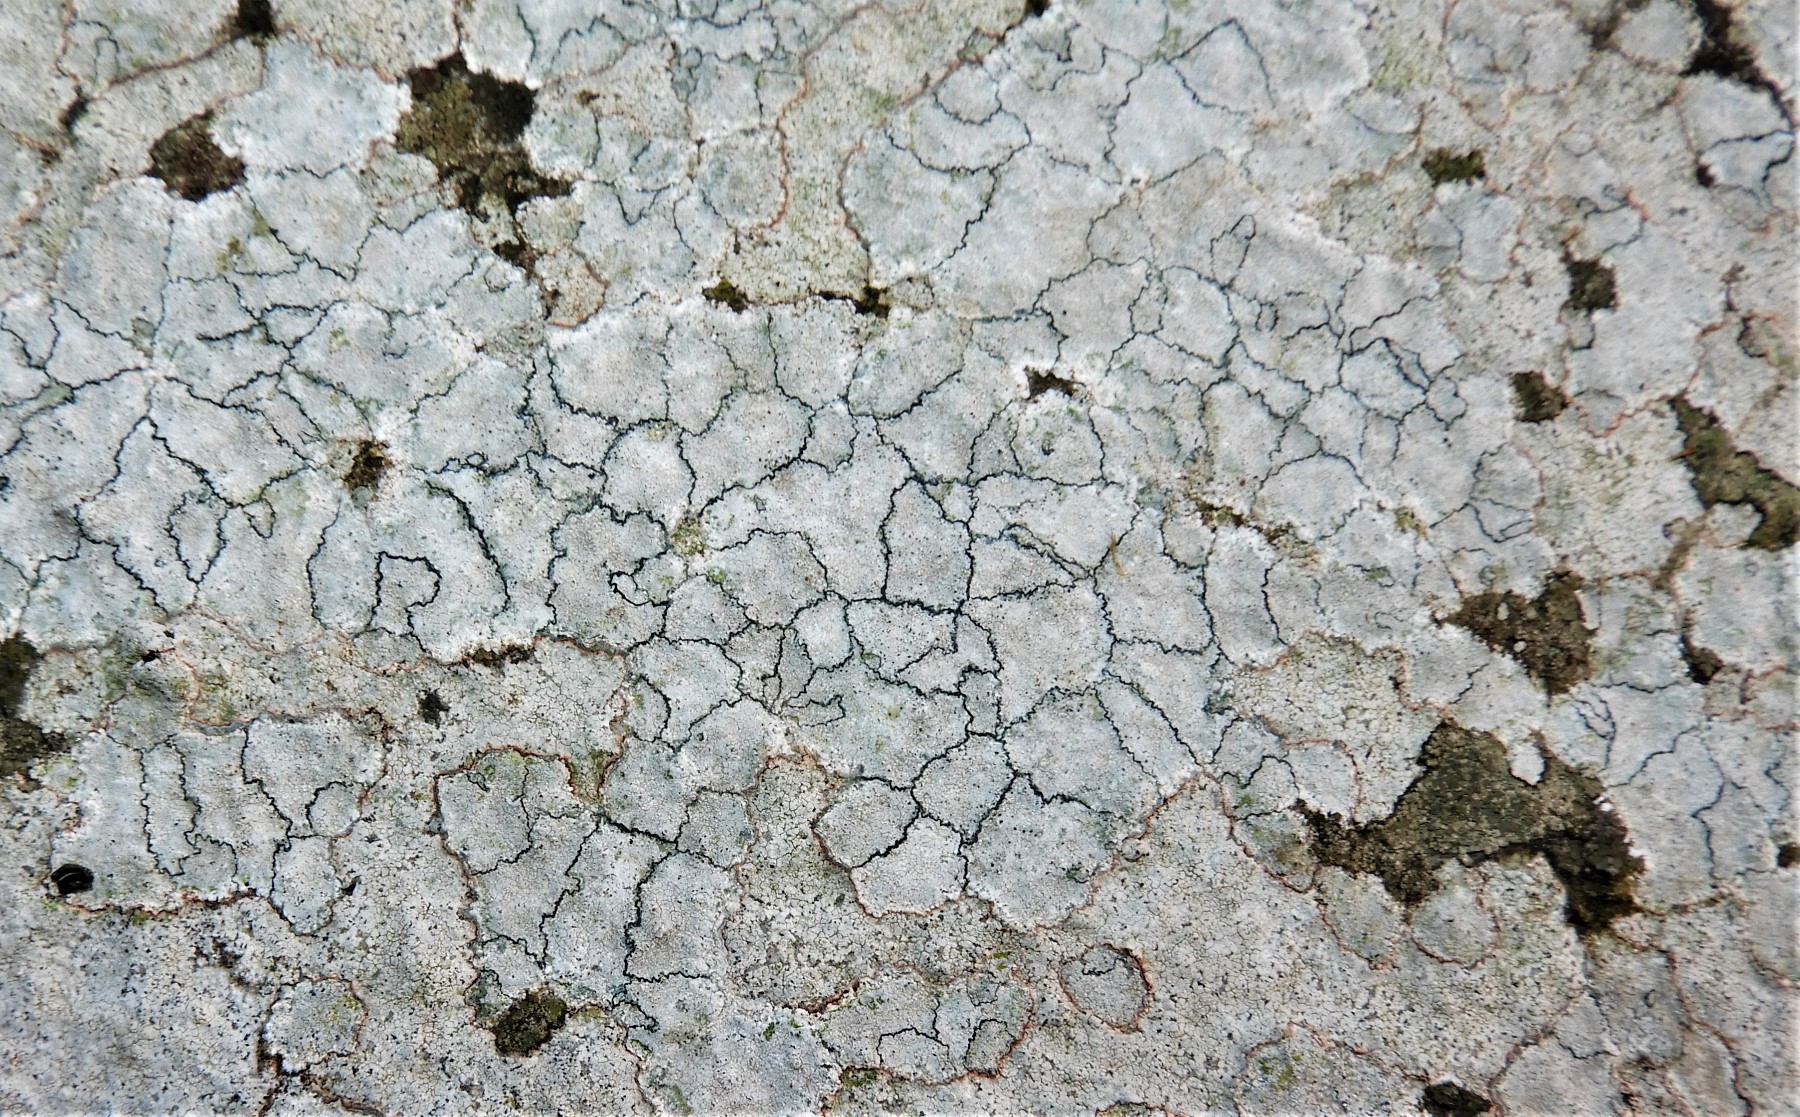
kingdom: Fungi
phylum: Ascomycota
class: Lecanoromycetes
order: Lecanorales
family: Lecanoraceae
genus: Glaucomaria
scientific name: Glaucomaria rupicola
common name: stengærde-kantskivelav
